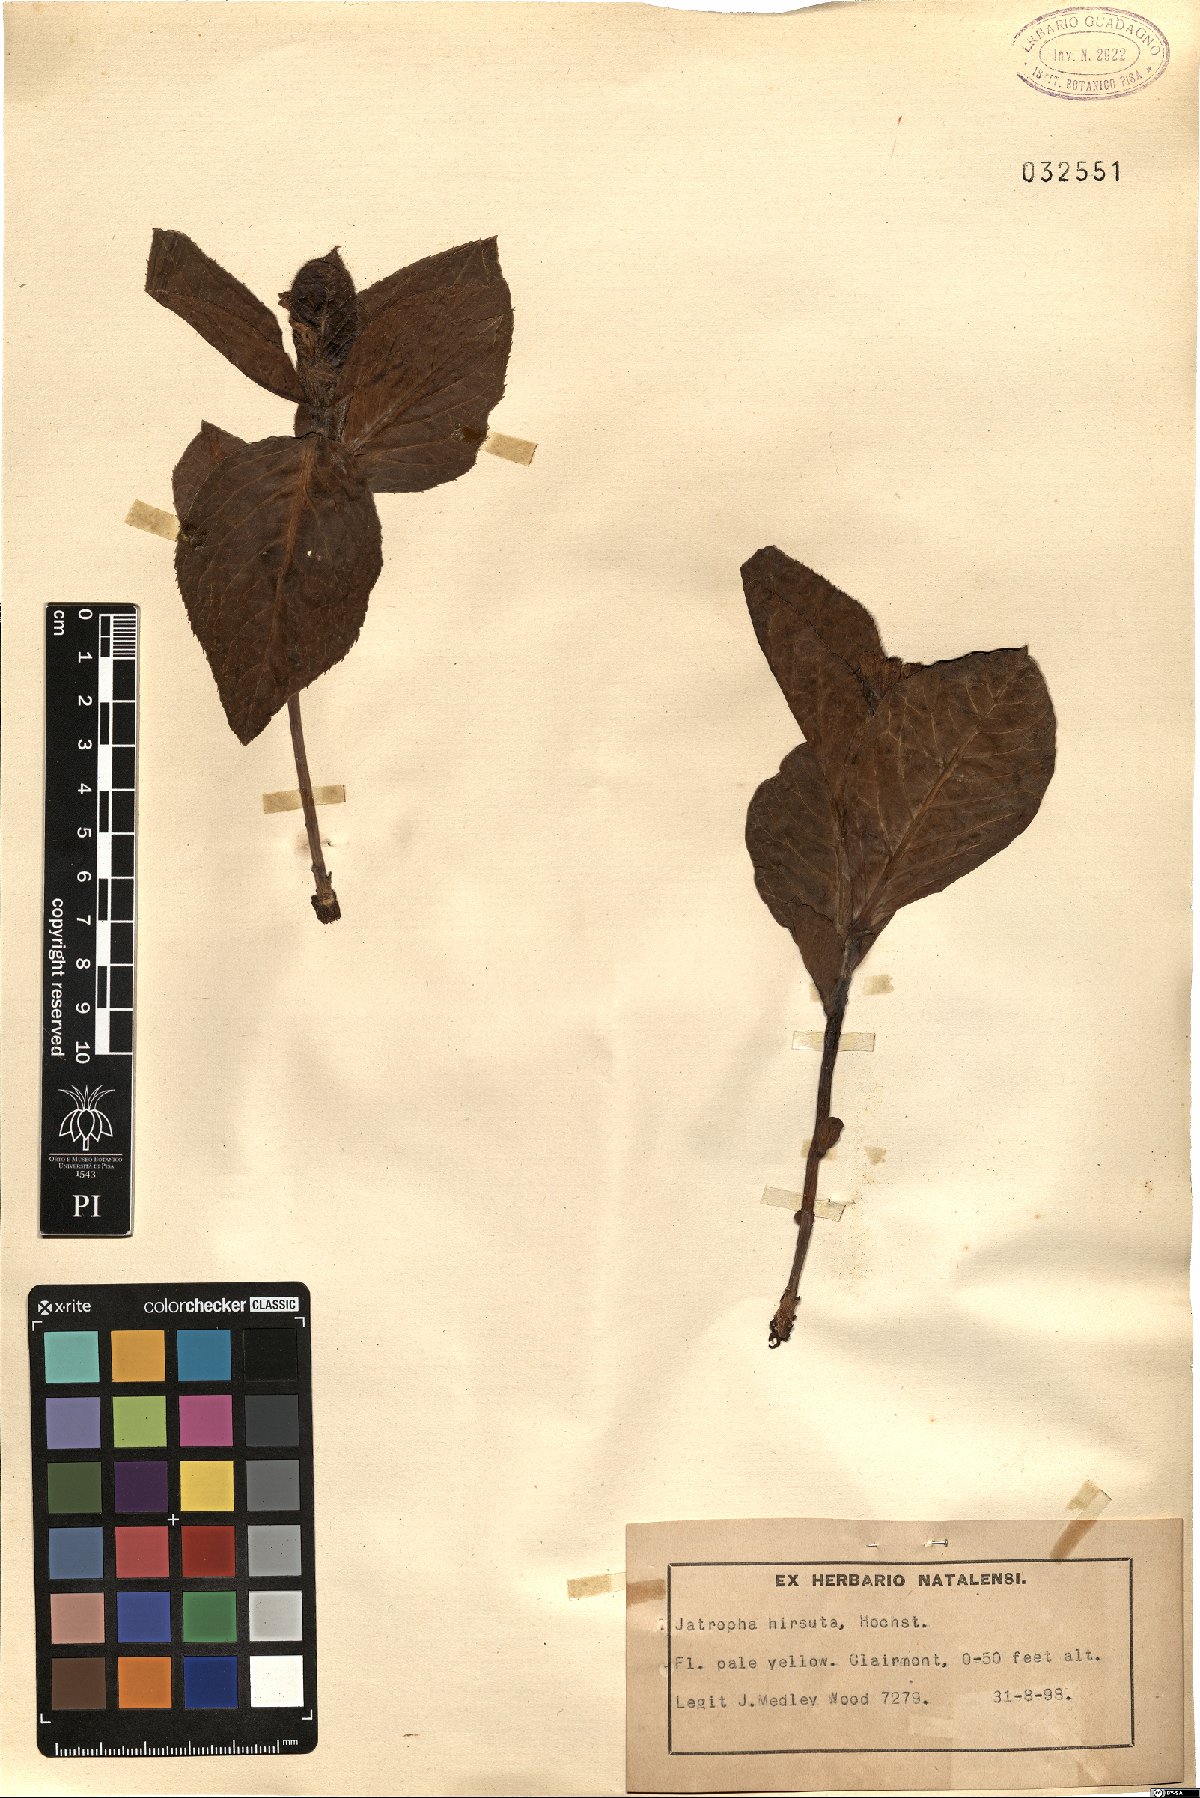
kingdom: Plantae
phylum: Tracheophyta
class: Magnoliopsida
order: Malpighiales
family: Euphorbiaceae
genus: Jatropha
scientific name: Jatropha hirsuta
